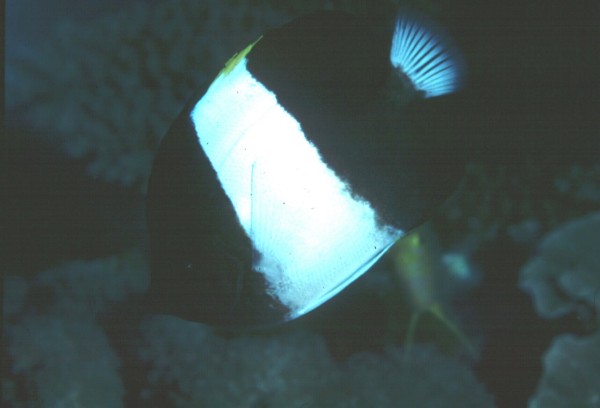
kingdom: Animalia
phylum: Chordata
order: Perciformes
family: Chaetodontidae
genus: Hemitaurichthys
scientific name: Hemitaurichthys zoster
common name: Brown-and-white butterflyfish
